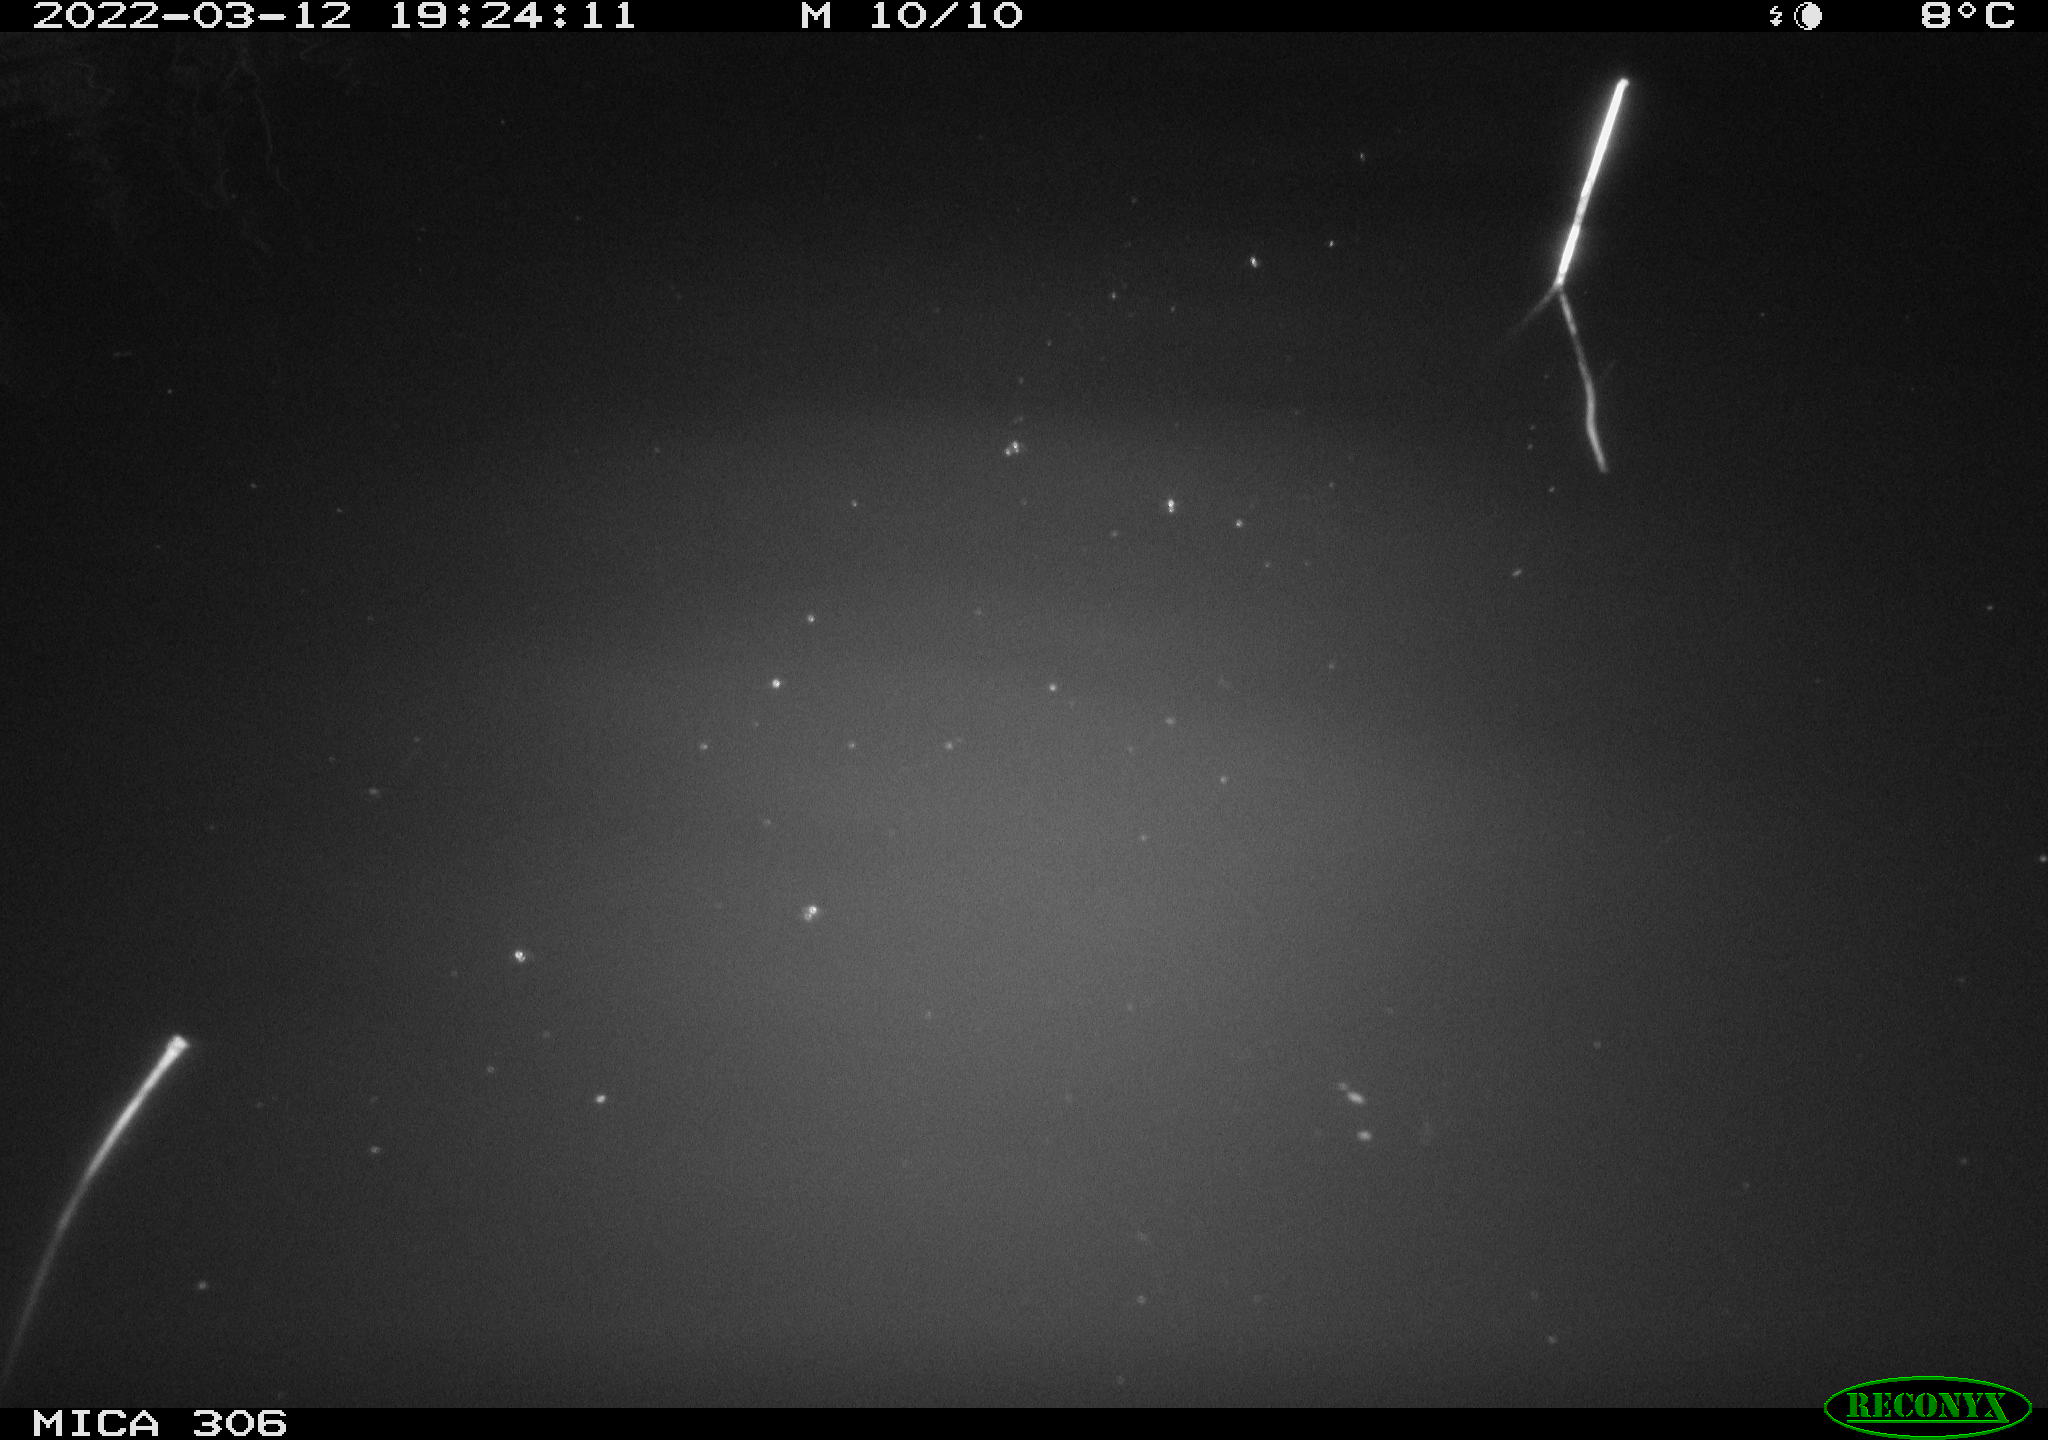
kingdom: Animalia
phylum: Chordata
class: Mammalia
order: Rodentia
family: Cricetidae
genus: Ondatra
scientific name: Ondatra zibethicus
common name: Muskrat
